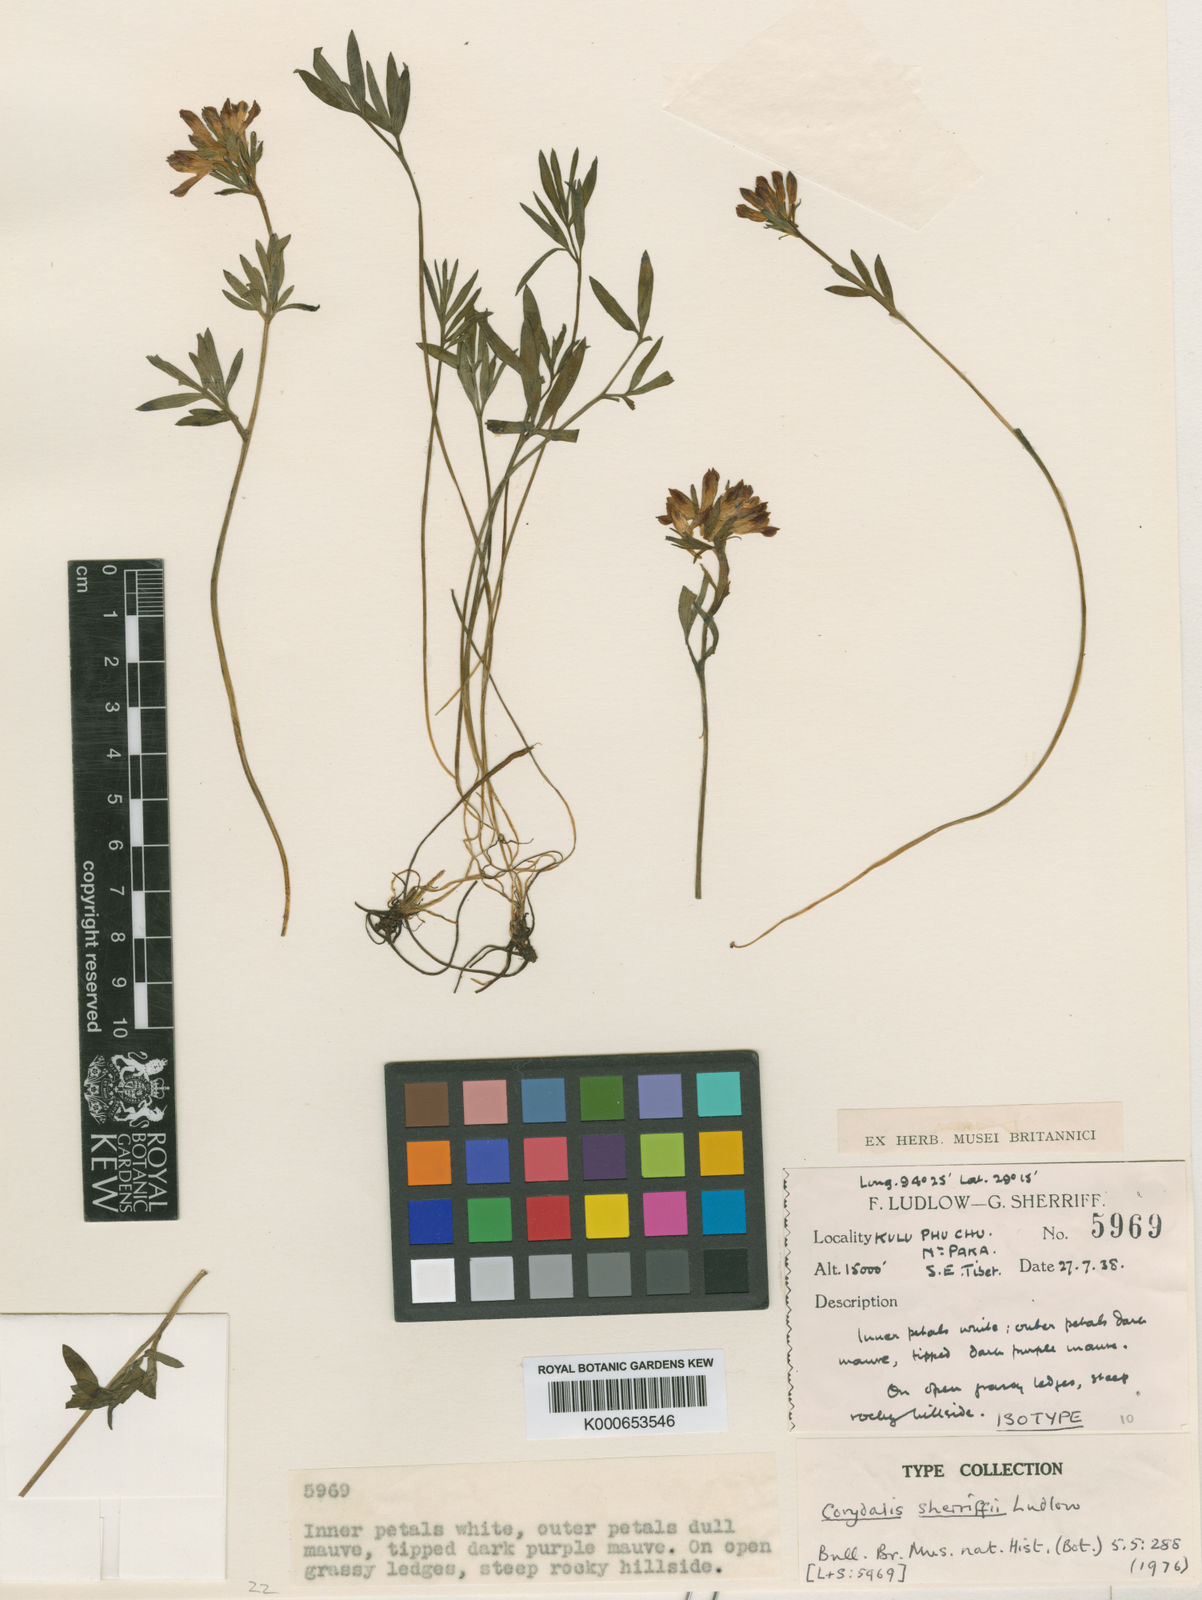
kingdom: Plantae
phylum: Tracheophyta
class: Magnoliopsida
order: Ranunculales
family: Papaveraceae
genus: Corydalis
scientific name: Corydalis sherriffii
